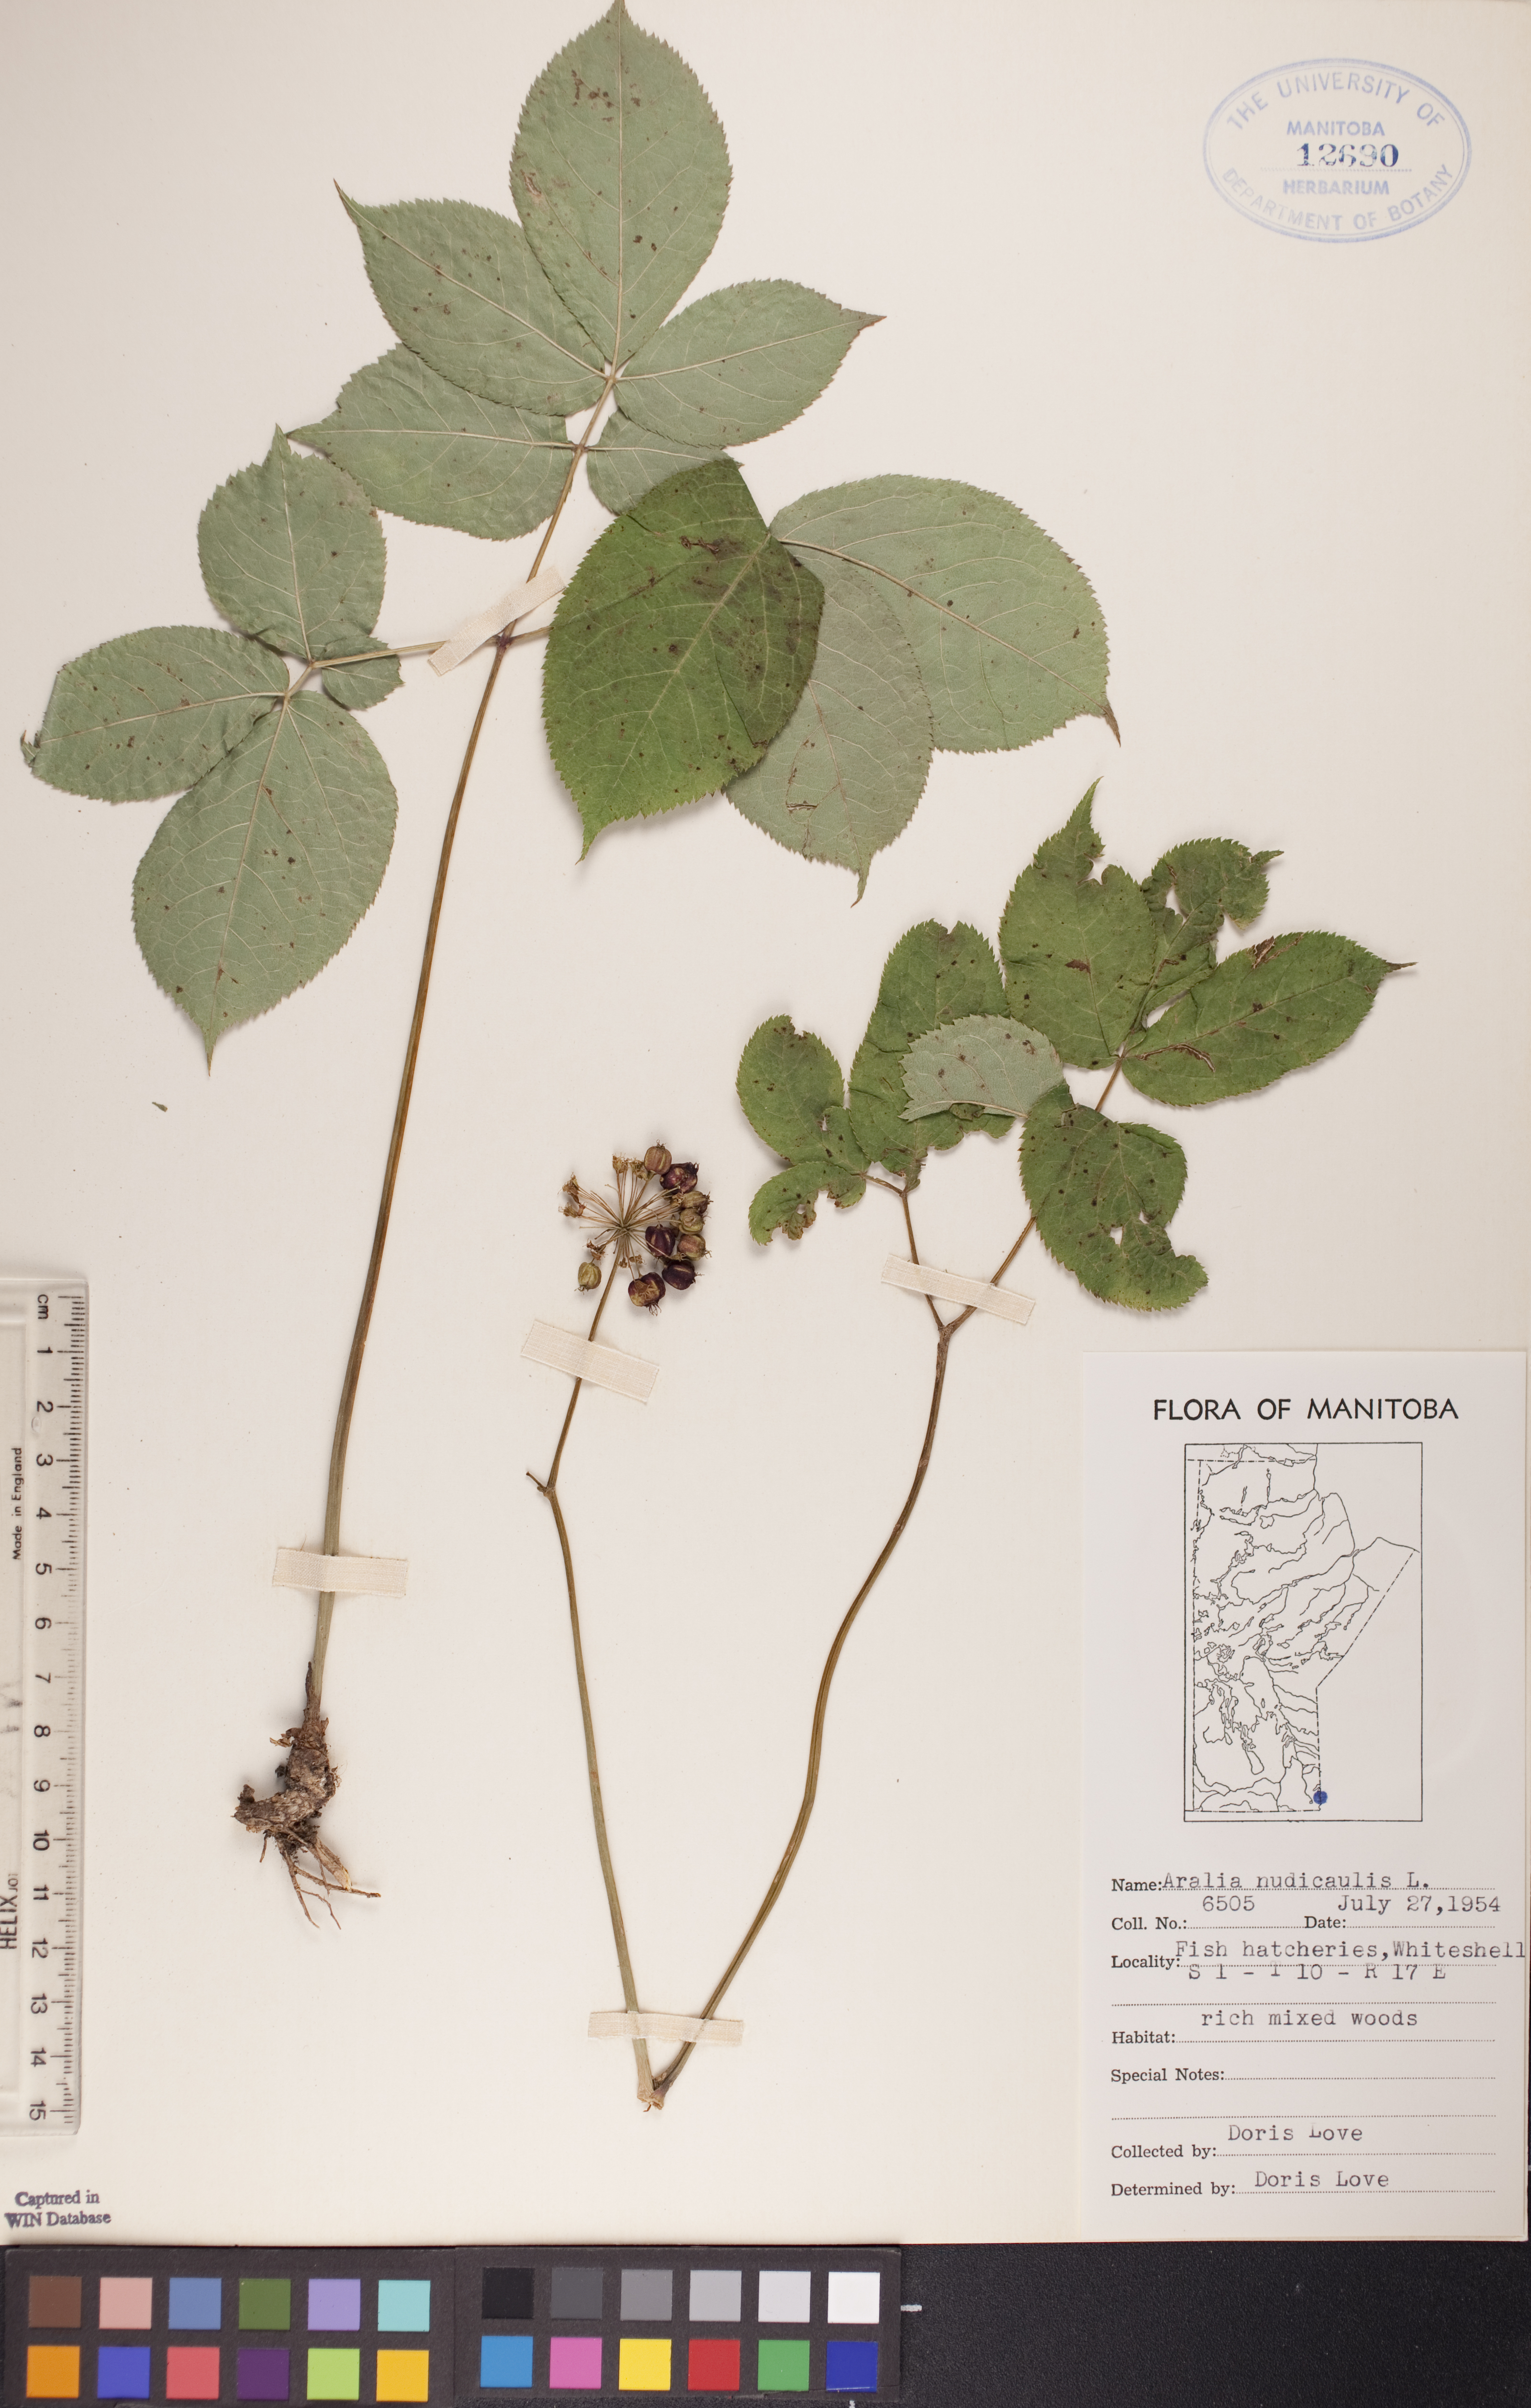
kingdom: Plantae
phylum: Tracheophyta
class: Magnoliopsida
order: Apiales
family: Araliaceae
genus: Aralia
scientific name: Aralia nudicaulis
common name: Wild sarsaparilla
